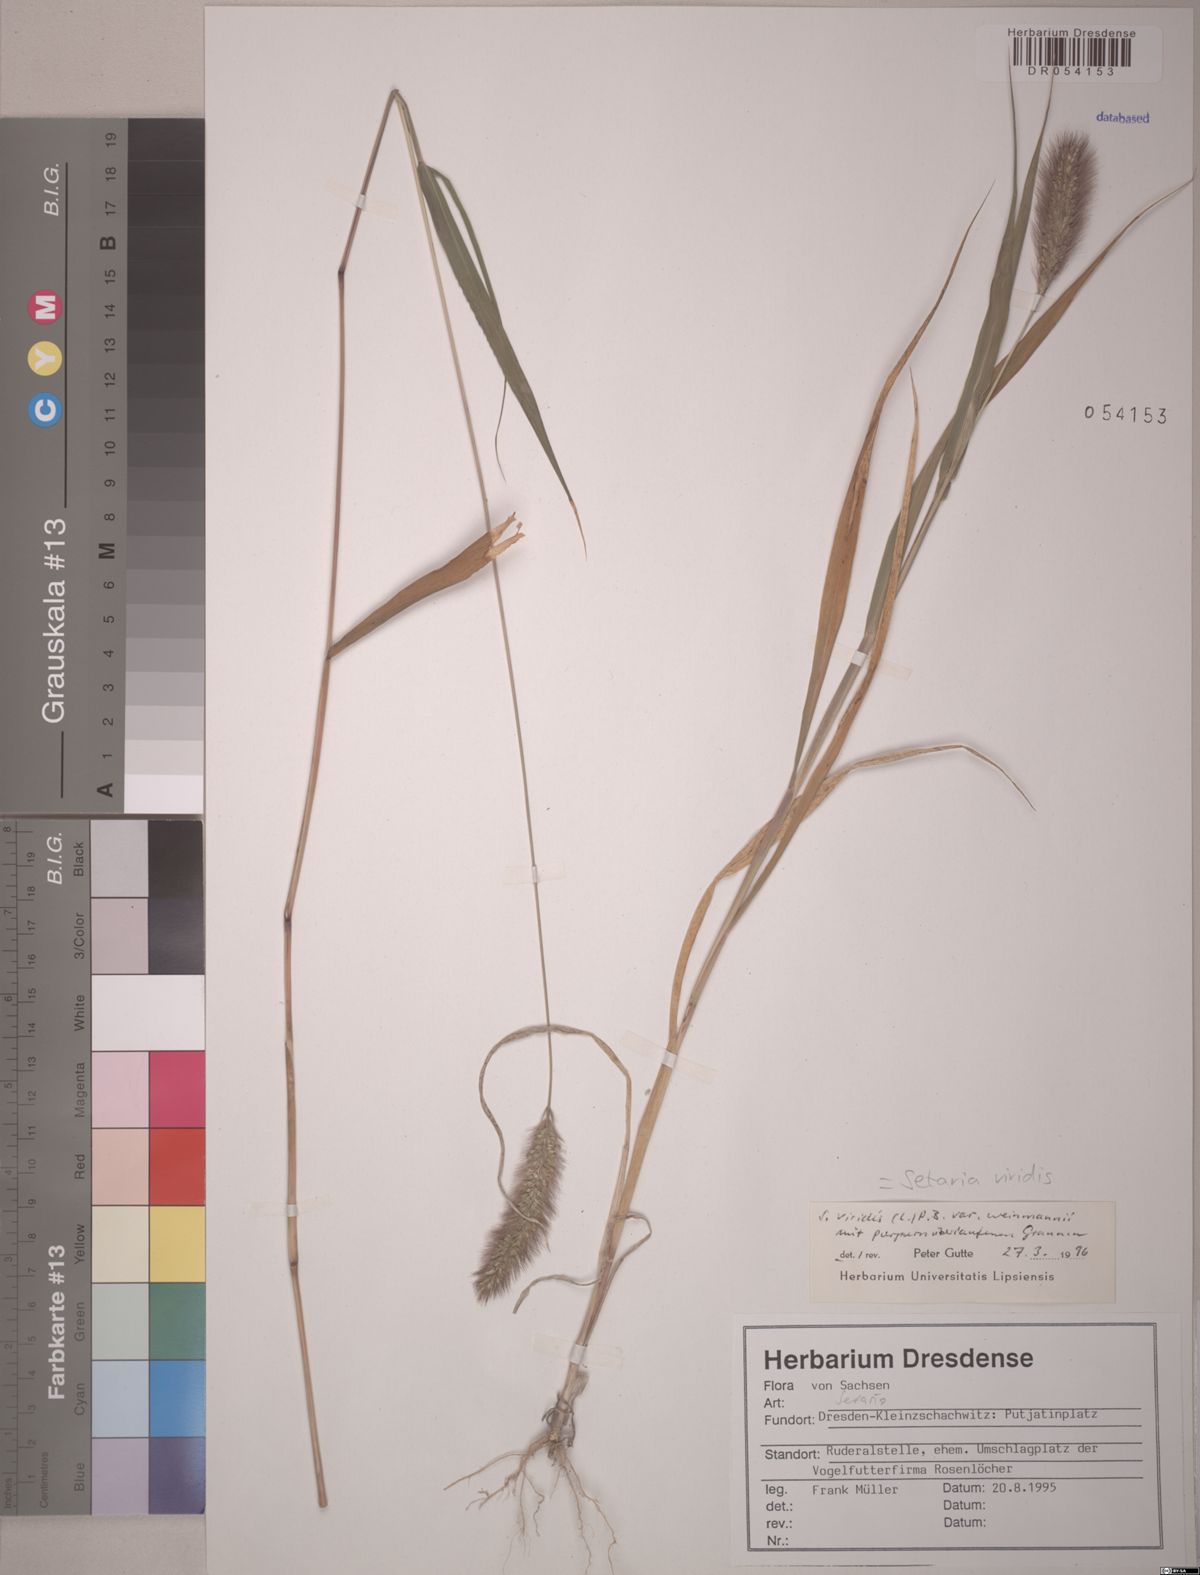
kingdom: Plantae
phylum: Tracheophyta
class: Liliopsida
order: Poales
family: Poaceae
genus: Setaria
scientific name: Setaria viridis
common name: Green bristlegrass
